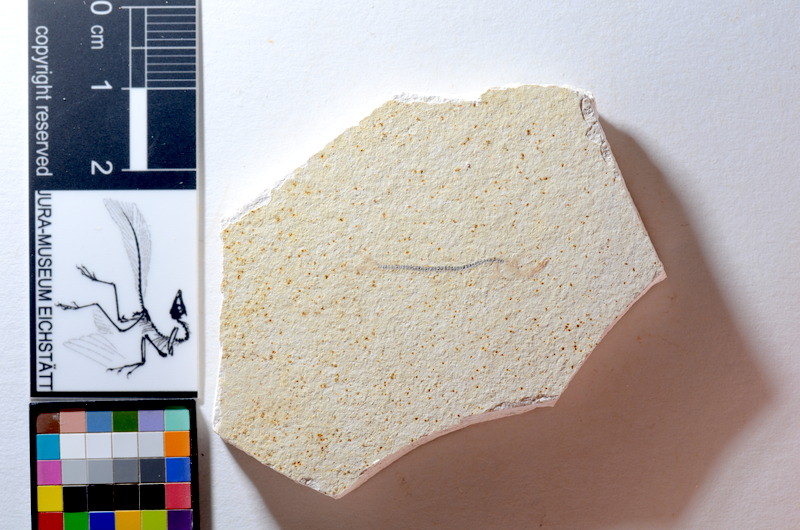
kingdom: Animalia
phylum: Chordata
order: Salmoniformes
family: Orthogonikleithridae
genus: Orthogonikleithrus
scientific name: Orthogonikleithrus hoelli
